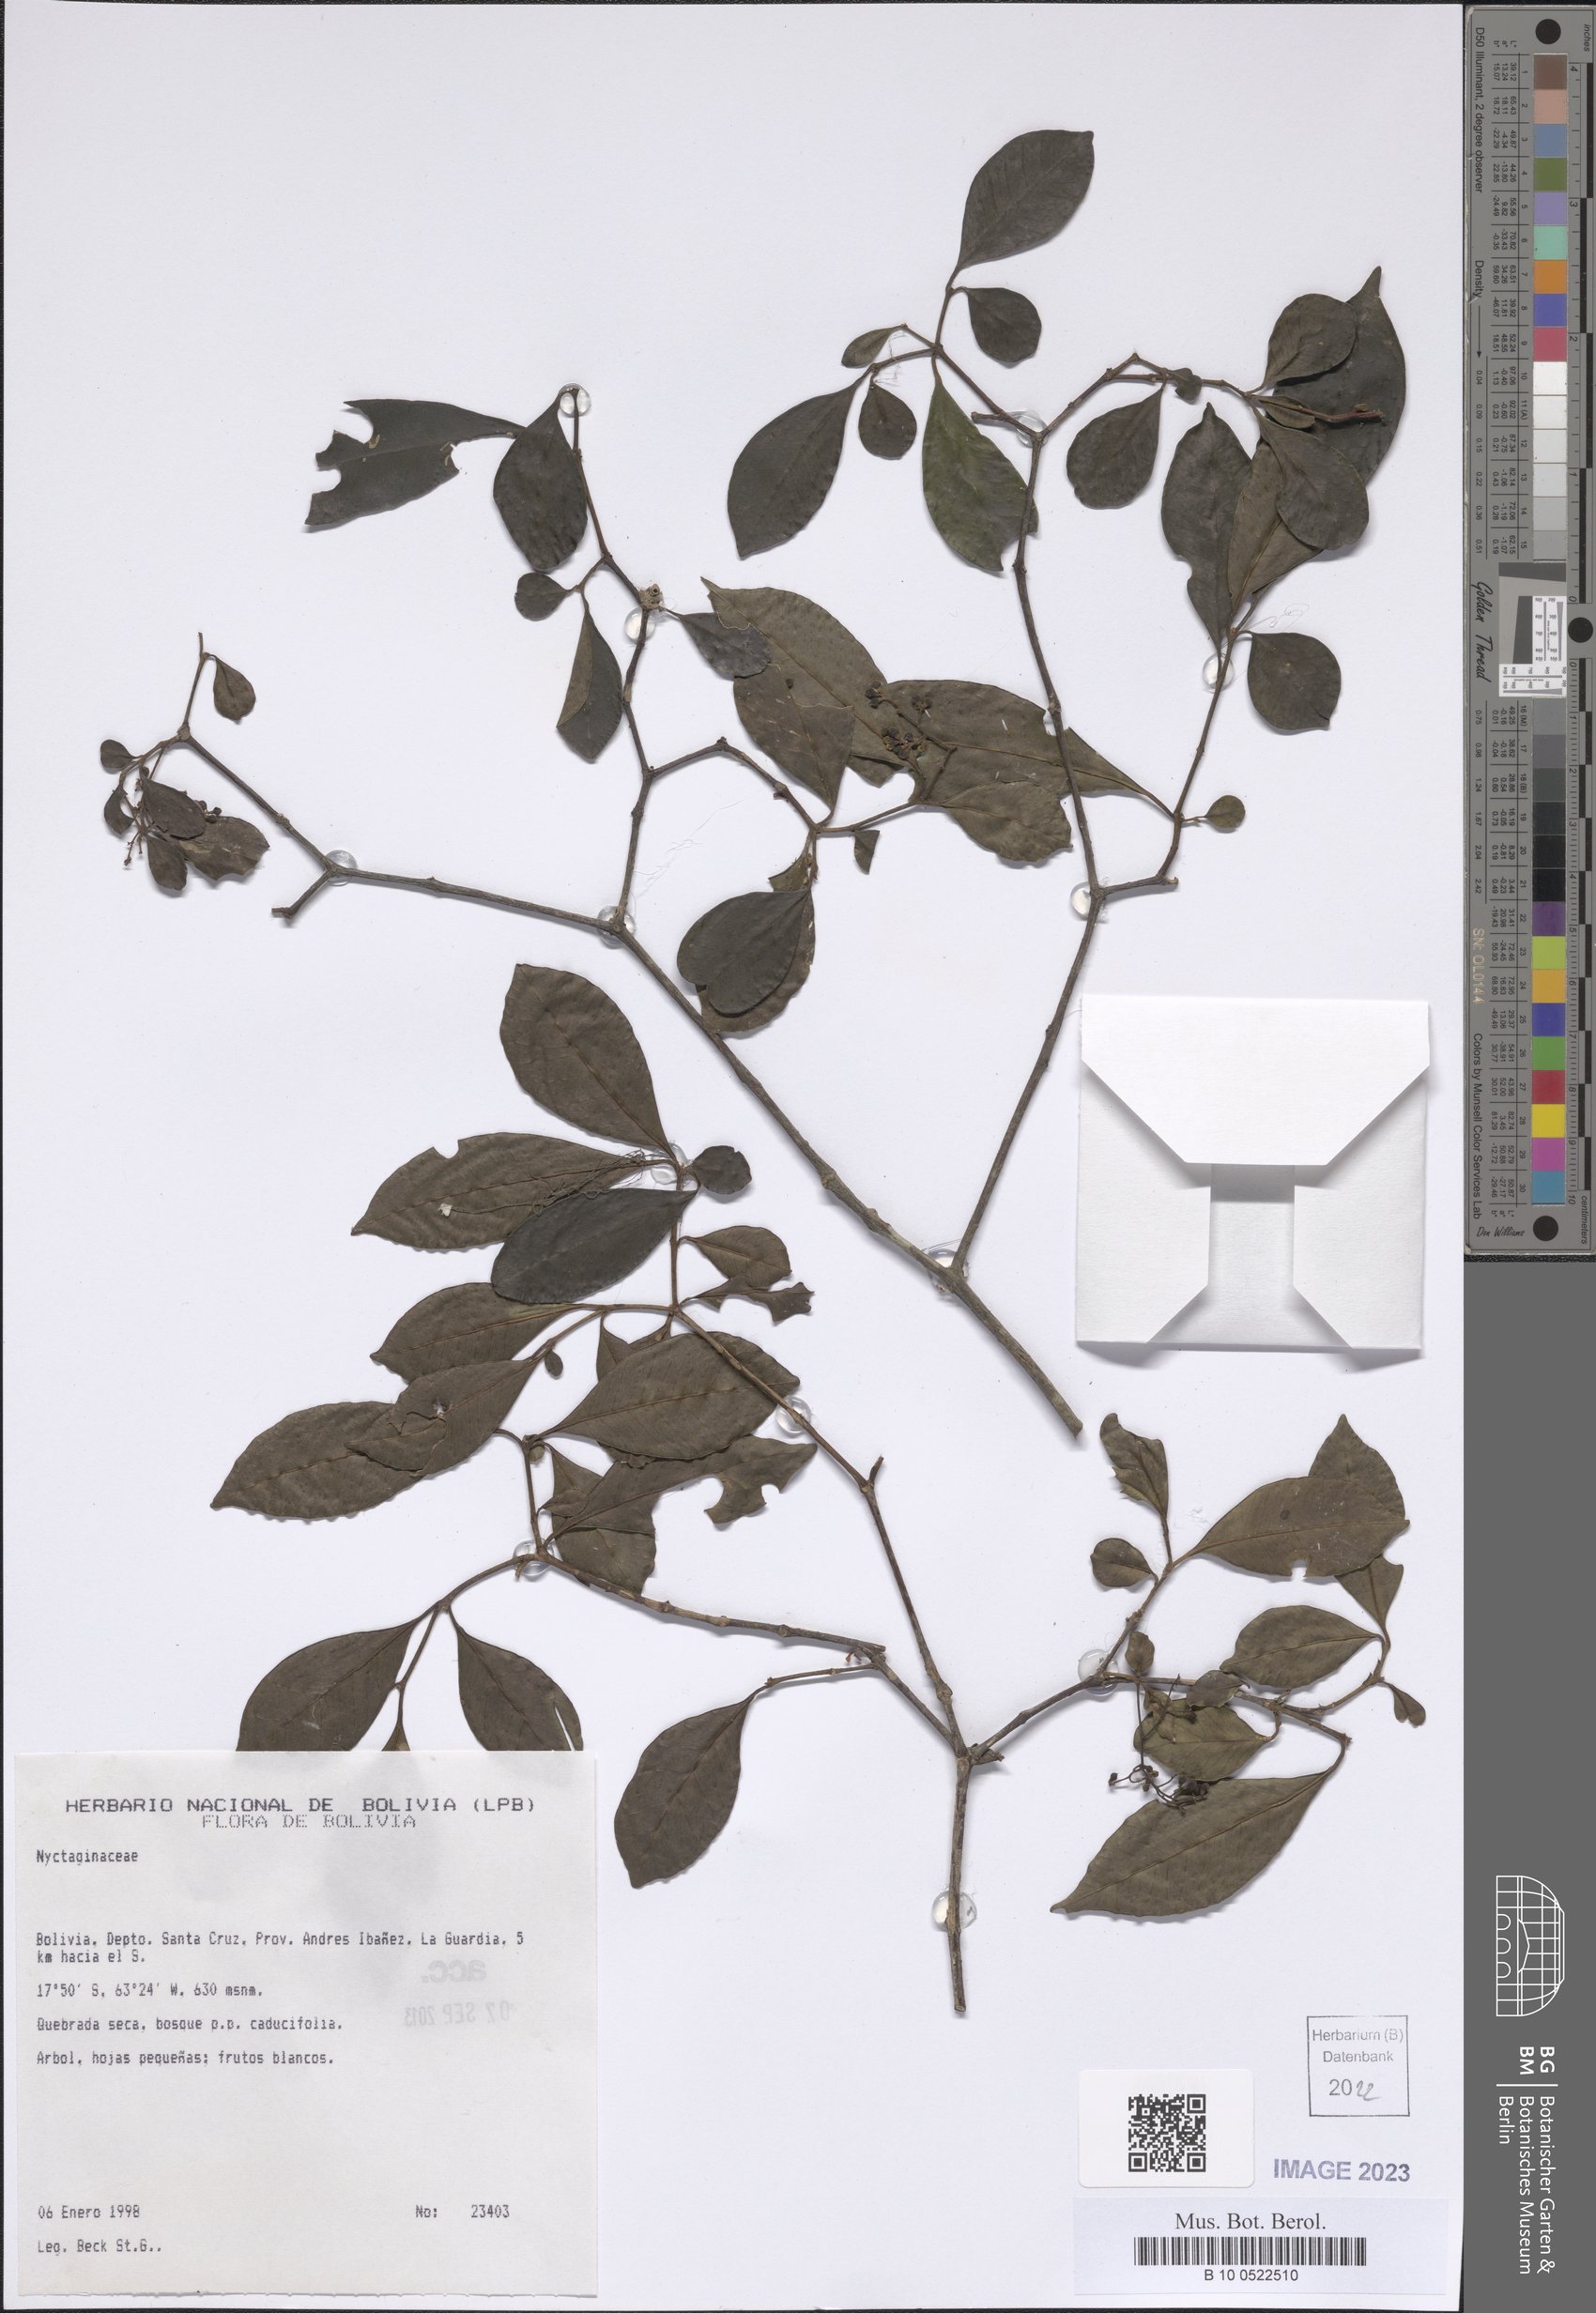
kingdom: Plantae
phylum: Tracheophyta
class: Magnoliopsida
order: Caryophyllales
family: Nyctaginaceae
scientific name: Nyctaginaceae
